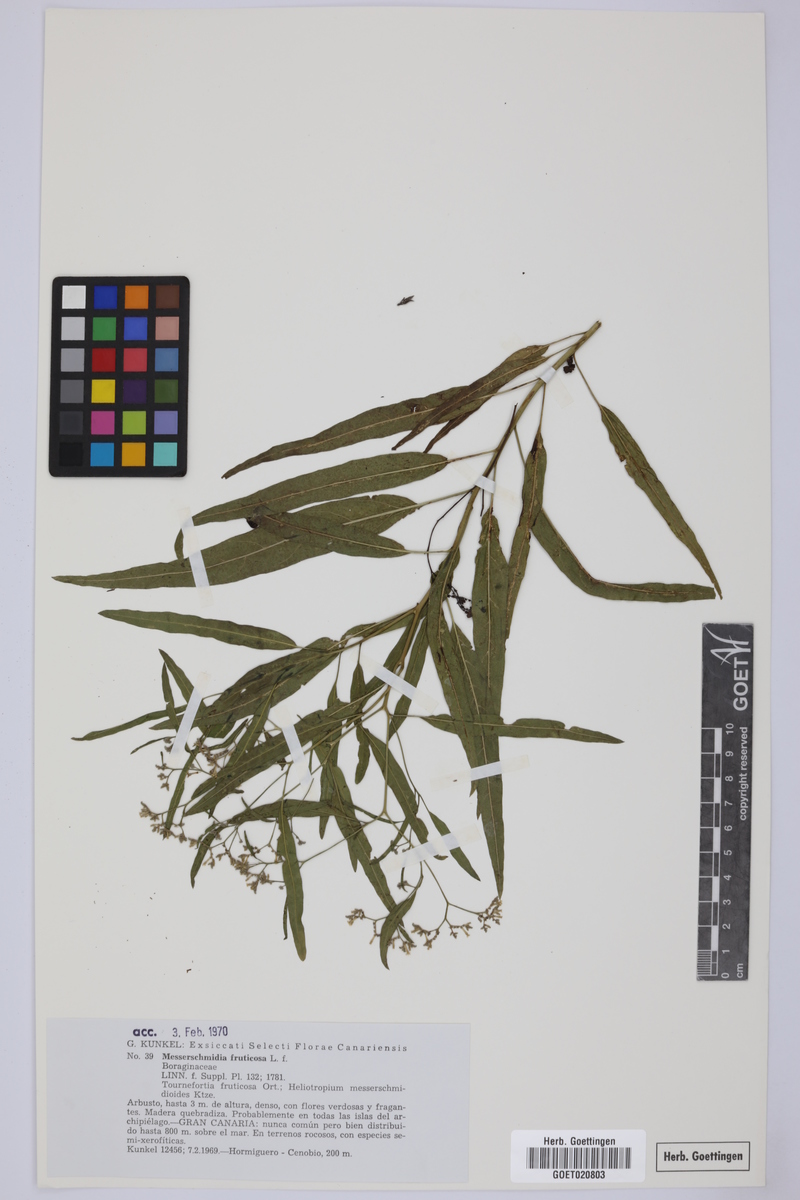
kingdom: Plantae
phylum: Tracheophyta
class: Magnoliopsida
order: Boraginales
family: Heliotropiaceae
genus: Heliotropium
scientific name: Heliotropium messerschmidioides
